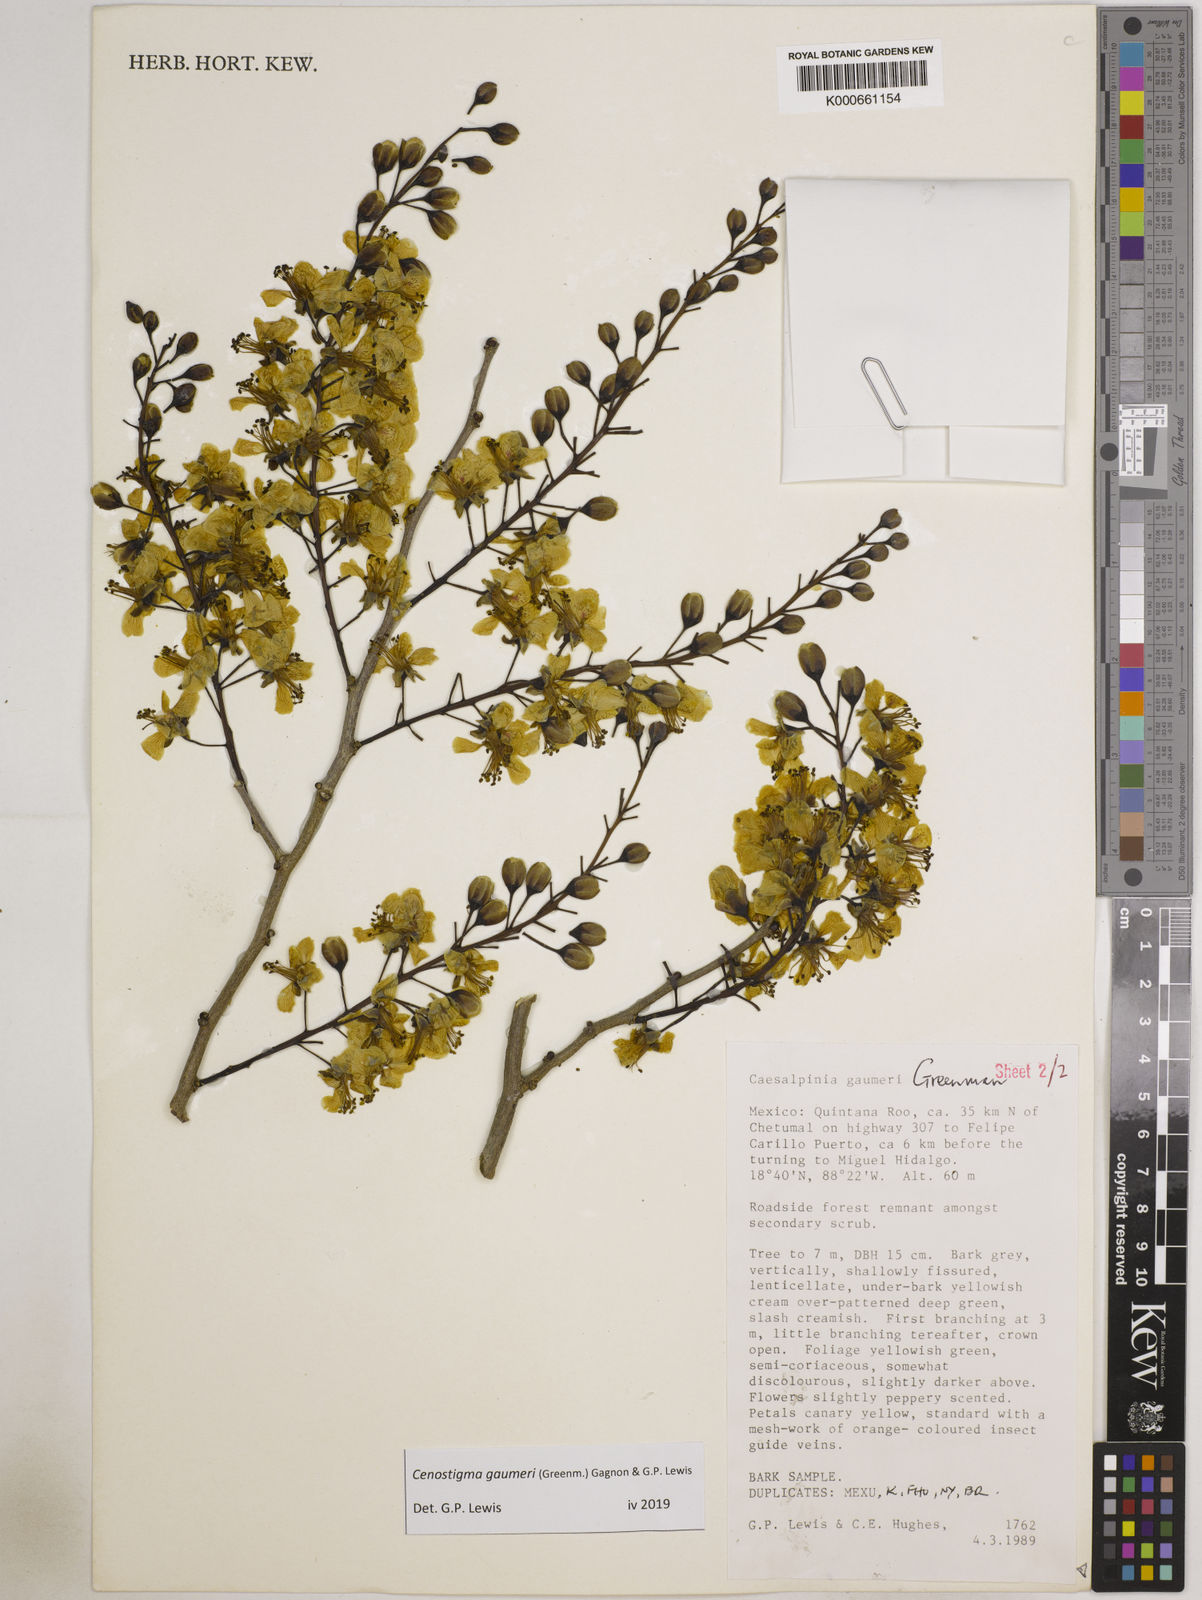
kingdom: Plantae
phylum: Tracheophyta
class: Magnoliopsida
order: Fabales
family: Fabaceae
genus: Cenostigma
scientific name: Cenostigma gaumeri
